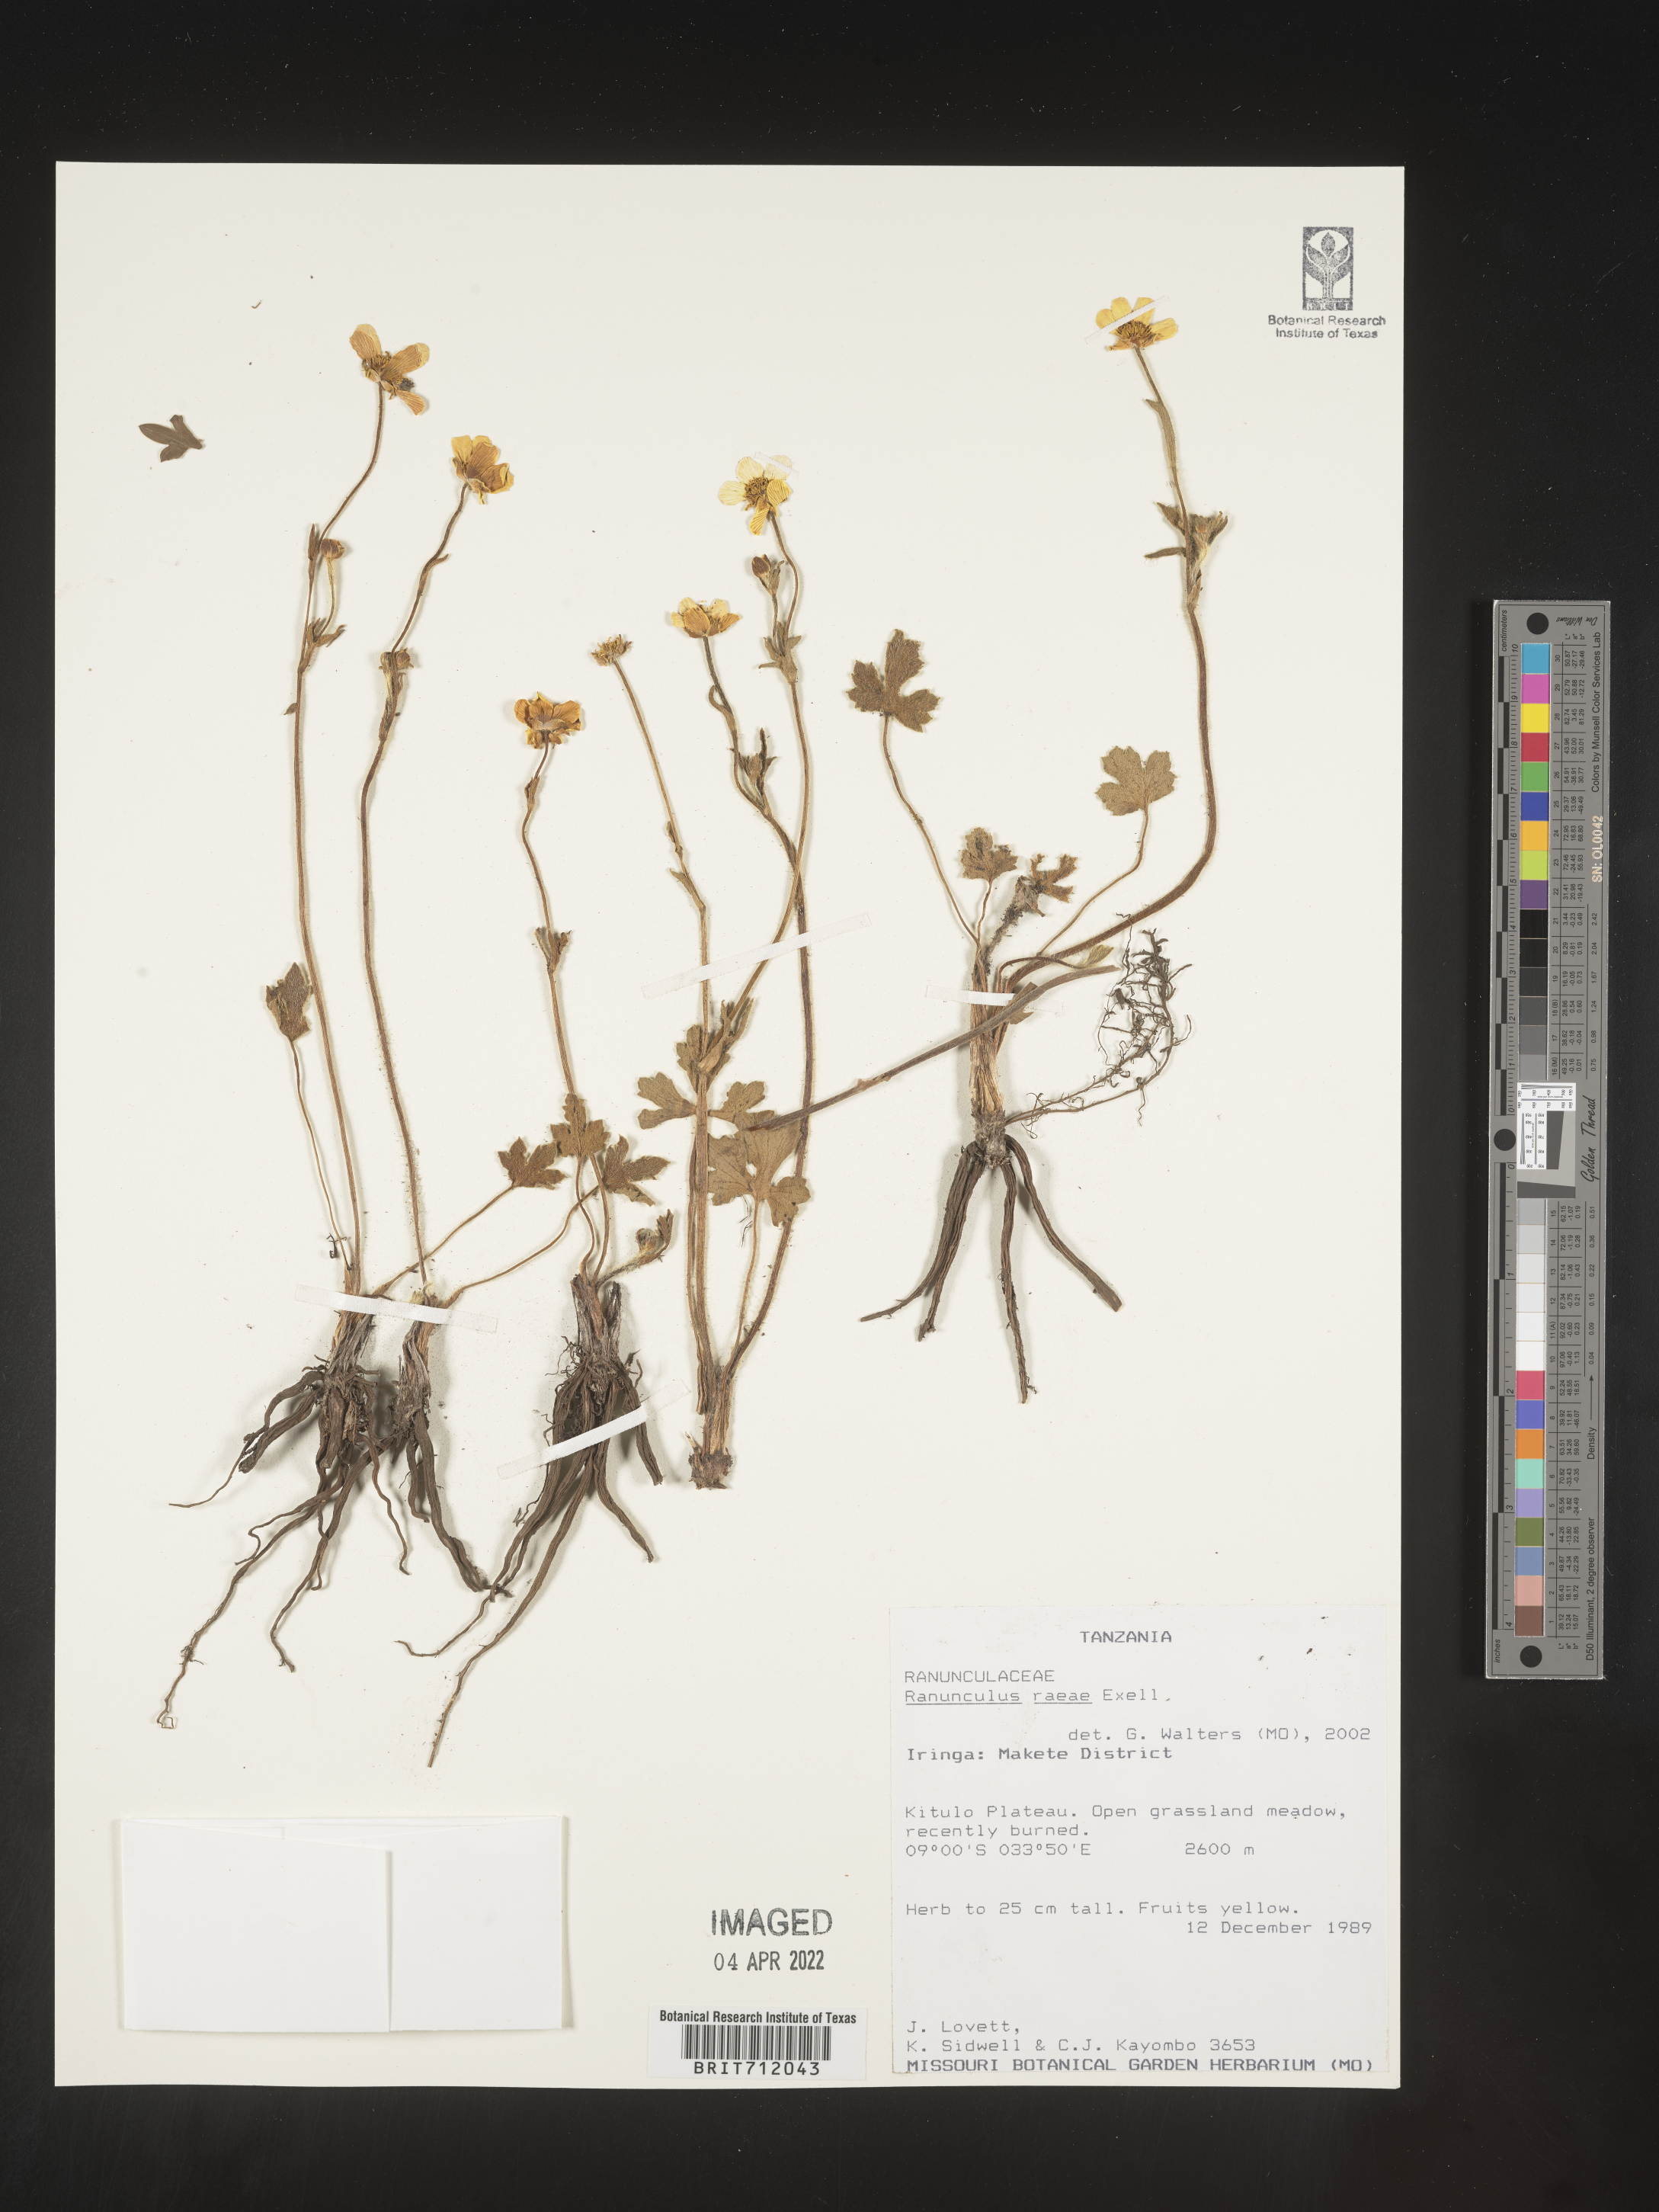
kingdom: Plantae
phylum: Tracheophyta
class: Magnoliopsida
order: Ranunculales
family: Ranunculaceae
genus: Ranunculus
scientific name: Ranunculus
